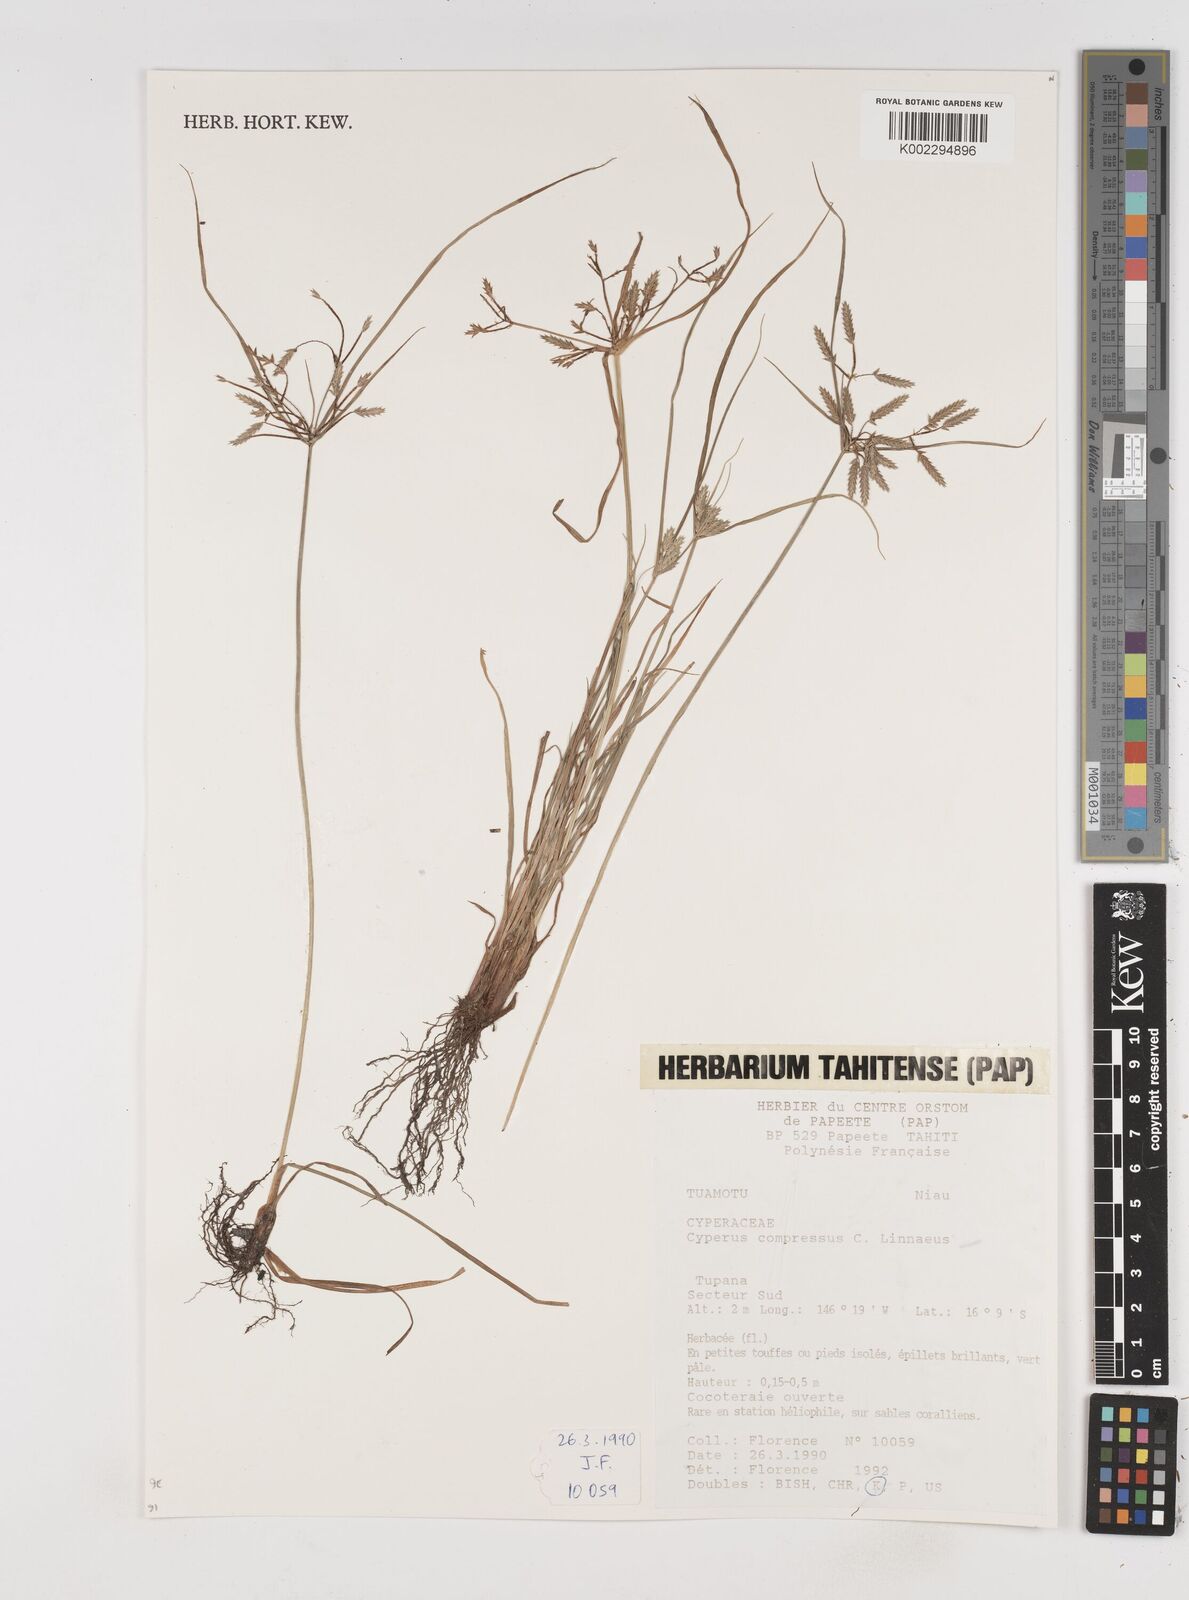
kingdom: Plantae
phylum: Tracheophyta
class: Liliopsida
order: Poales
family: Cyperaceae
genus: Cyperus
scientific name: Cyperus compressus
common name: Poorland flatsedge
